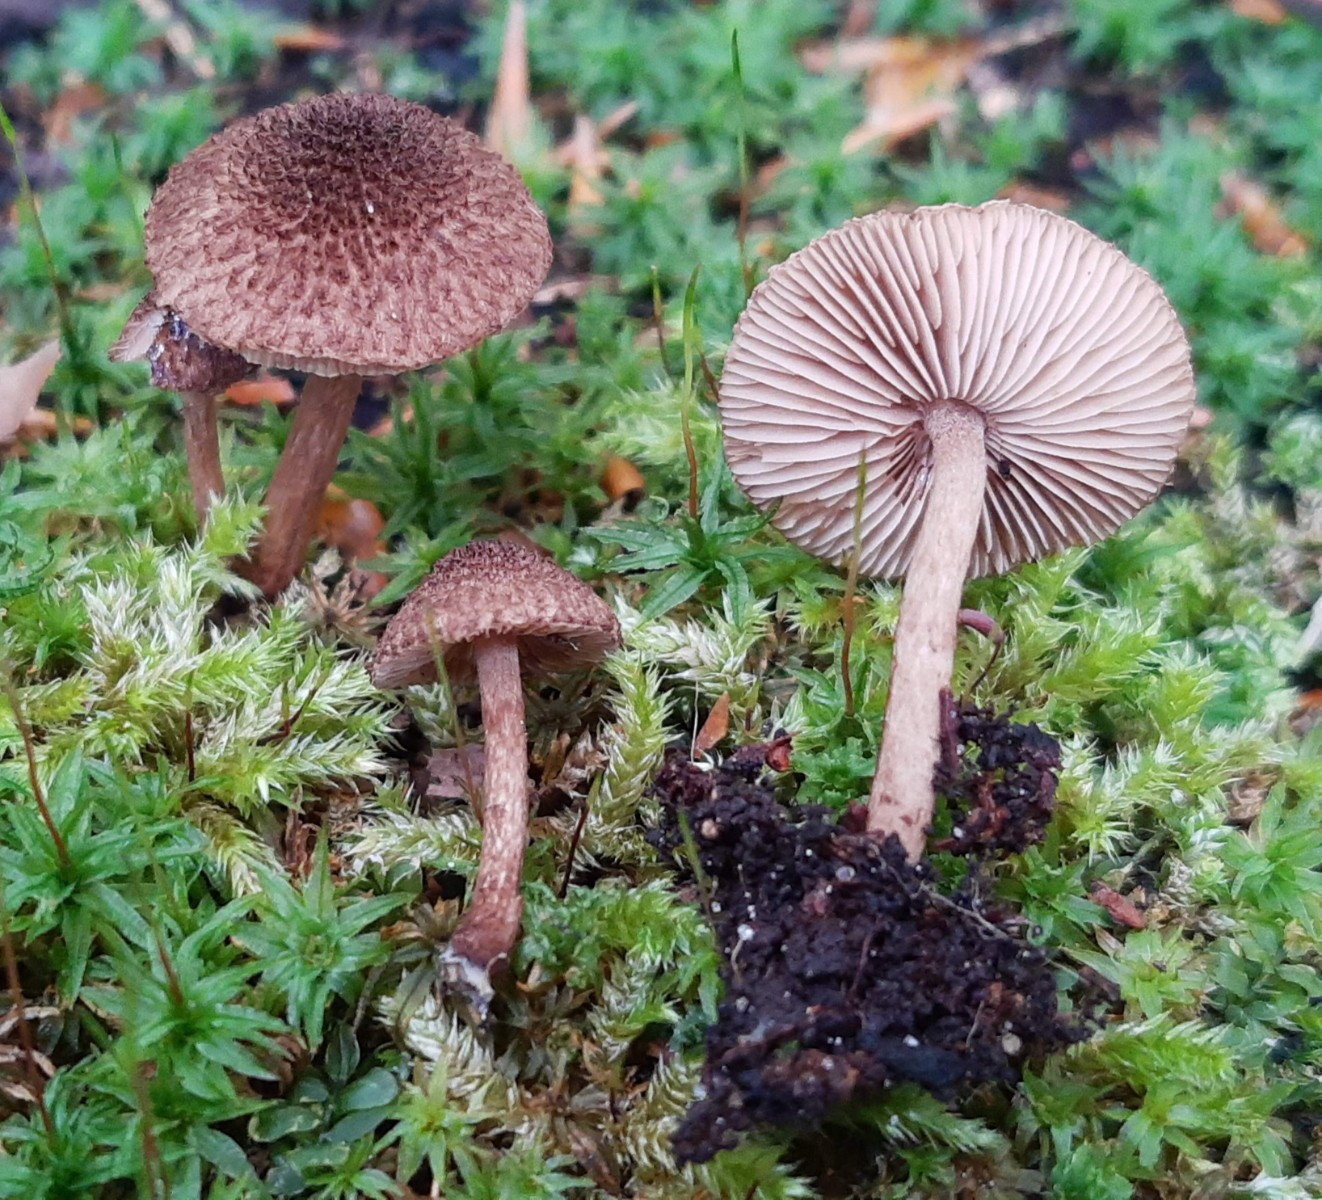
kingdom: Fungi
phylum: Basidiomycota
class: Agaricomycetes
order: Agaricales
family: Inocybaceae
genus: Inocybe
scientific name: Inocybe lanuginosa
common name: uldskællet trævlhat
